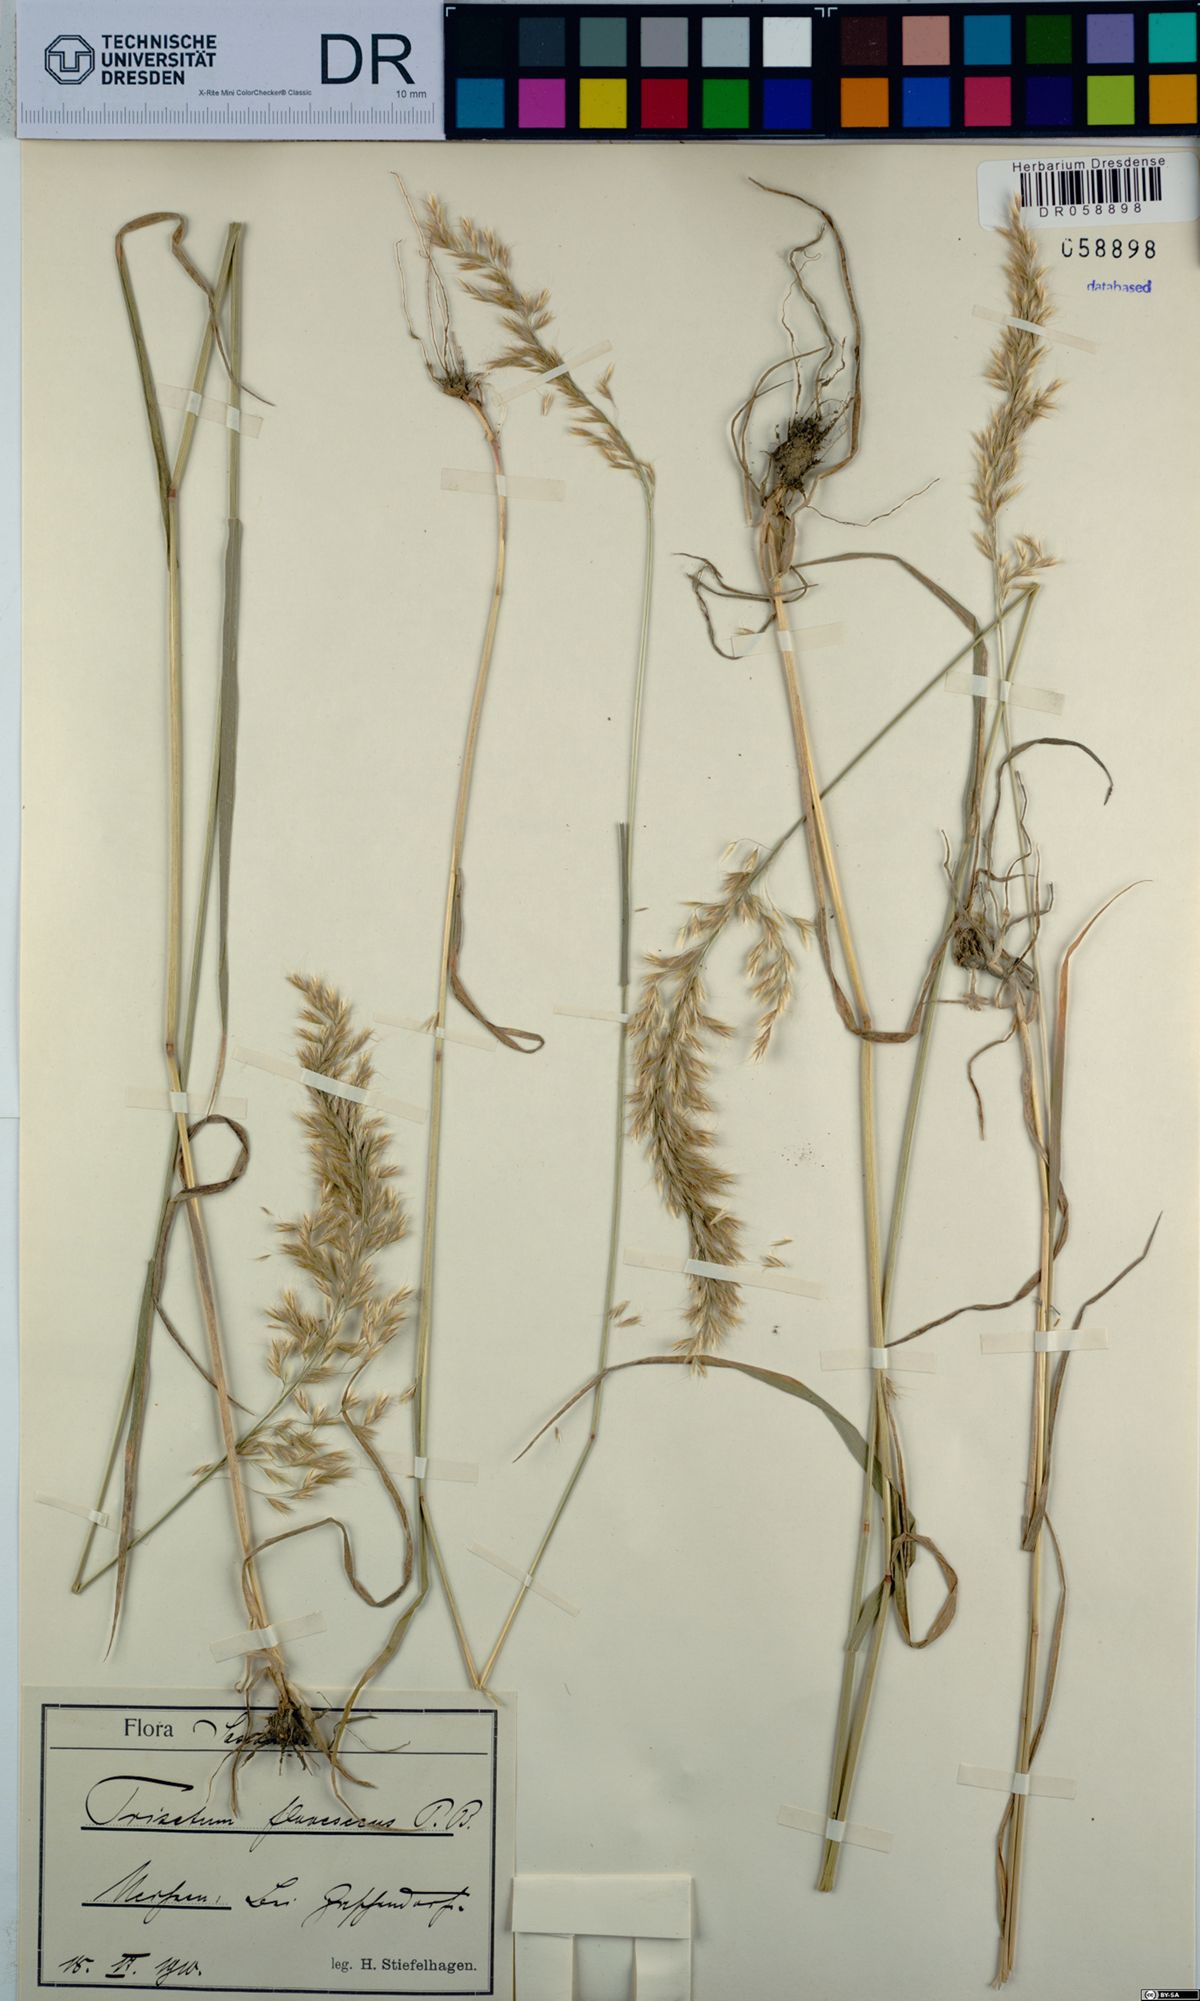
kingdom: Plantae
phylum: Tracheophyta
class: Liliopsida
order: Poales
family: Poaceae
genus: Trisetum
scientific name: Trisetum flavescens
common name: Yellow oat-grass
